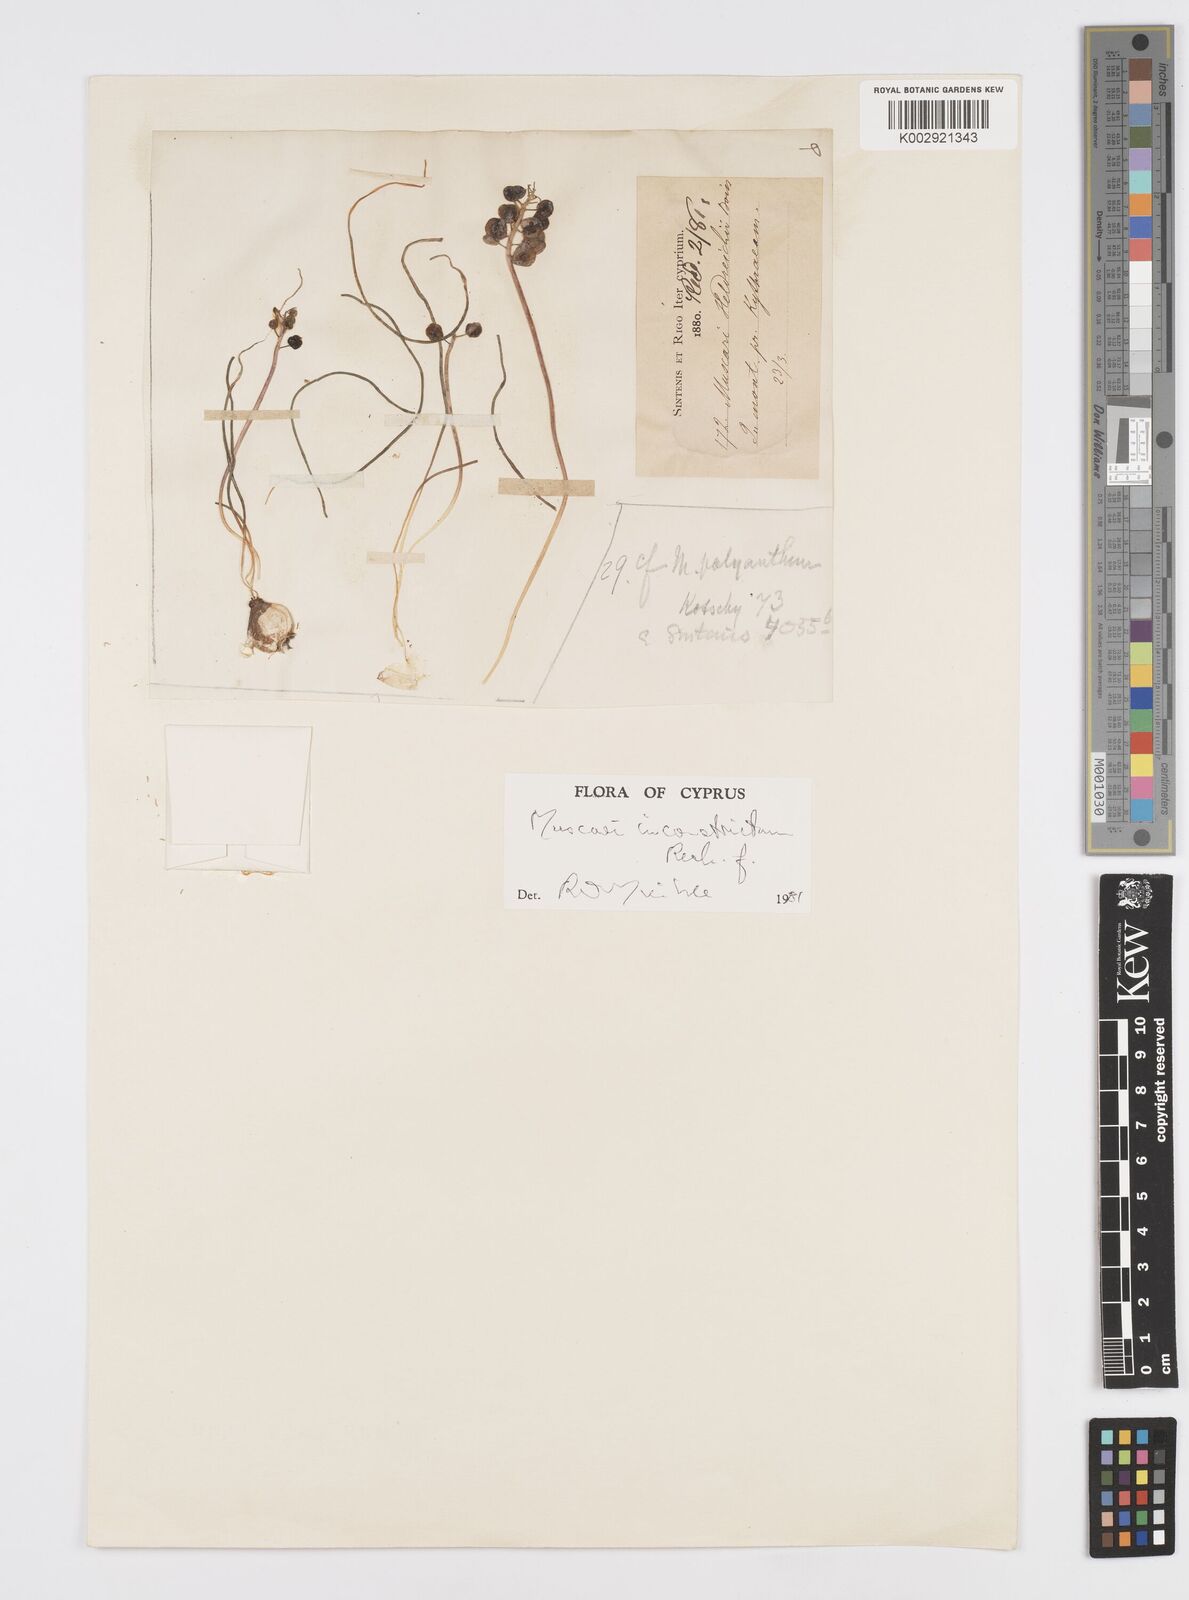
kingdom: Plantae
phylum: Tracheophyta
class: Liliopsida
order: Asparagales
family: Asparagaceae
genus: Muscari
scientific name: Muscari inconstrictum
